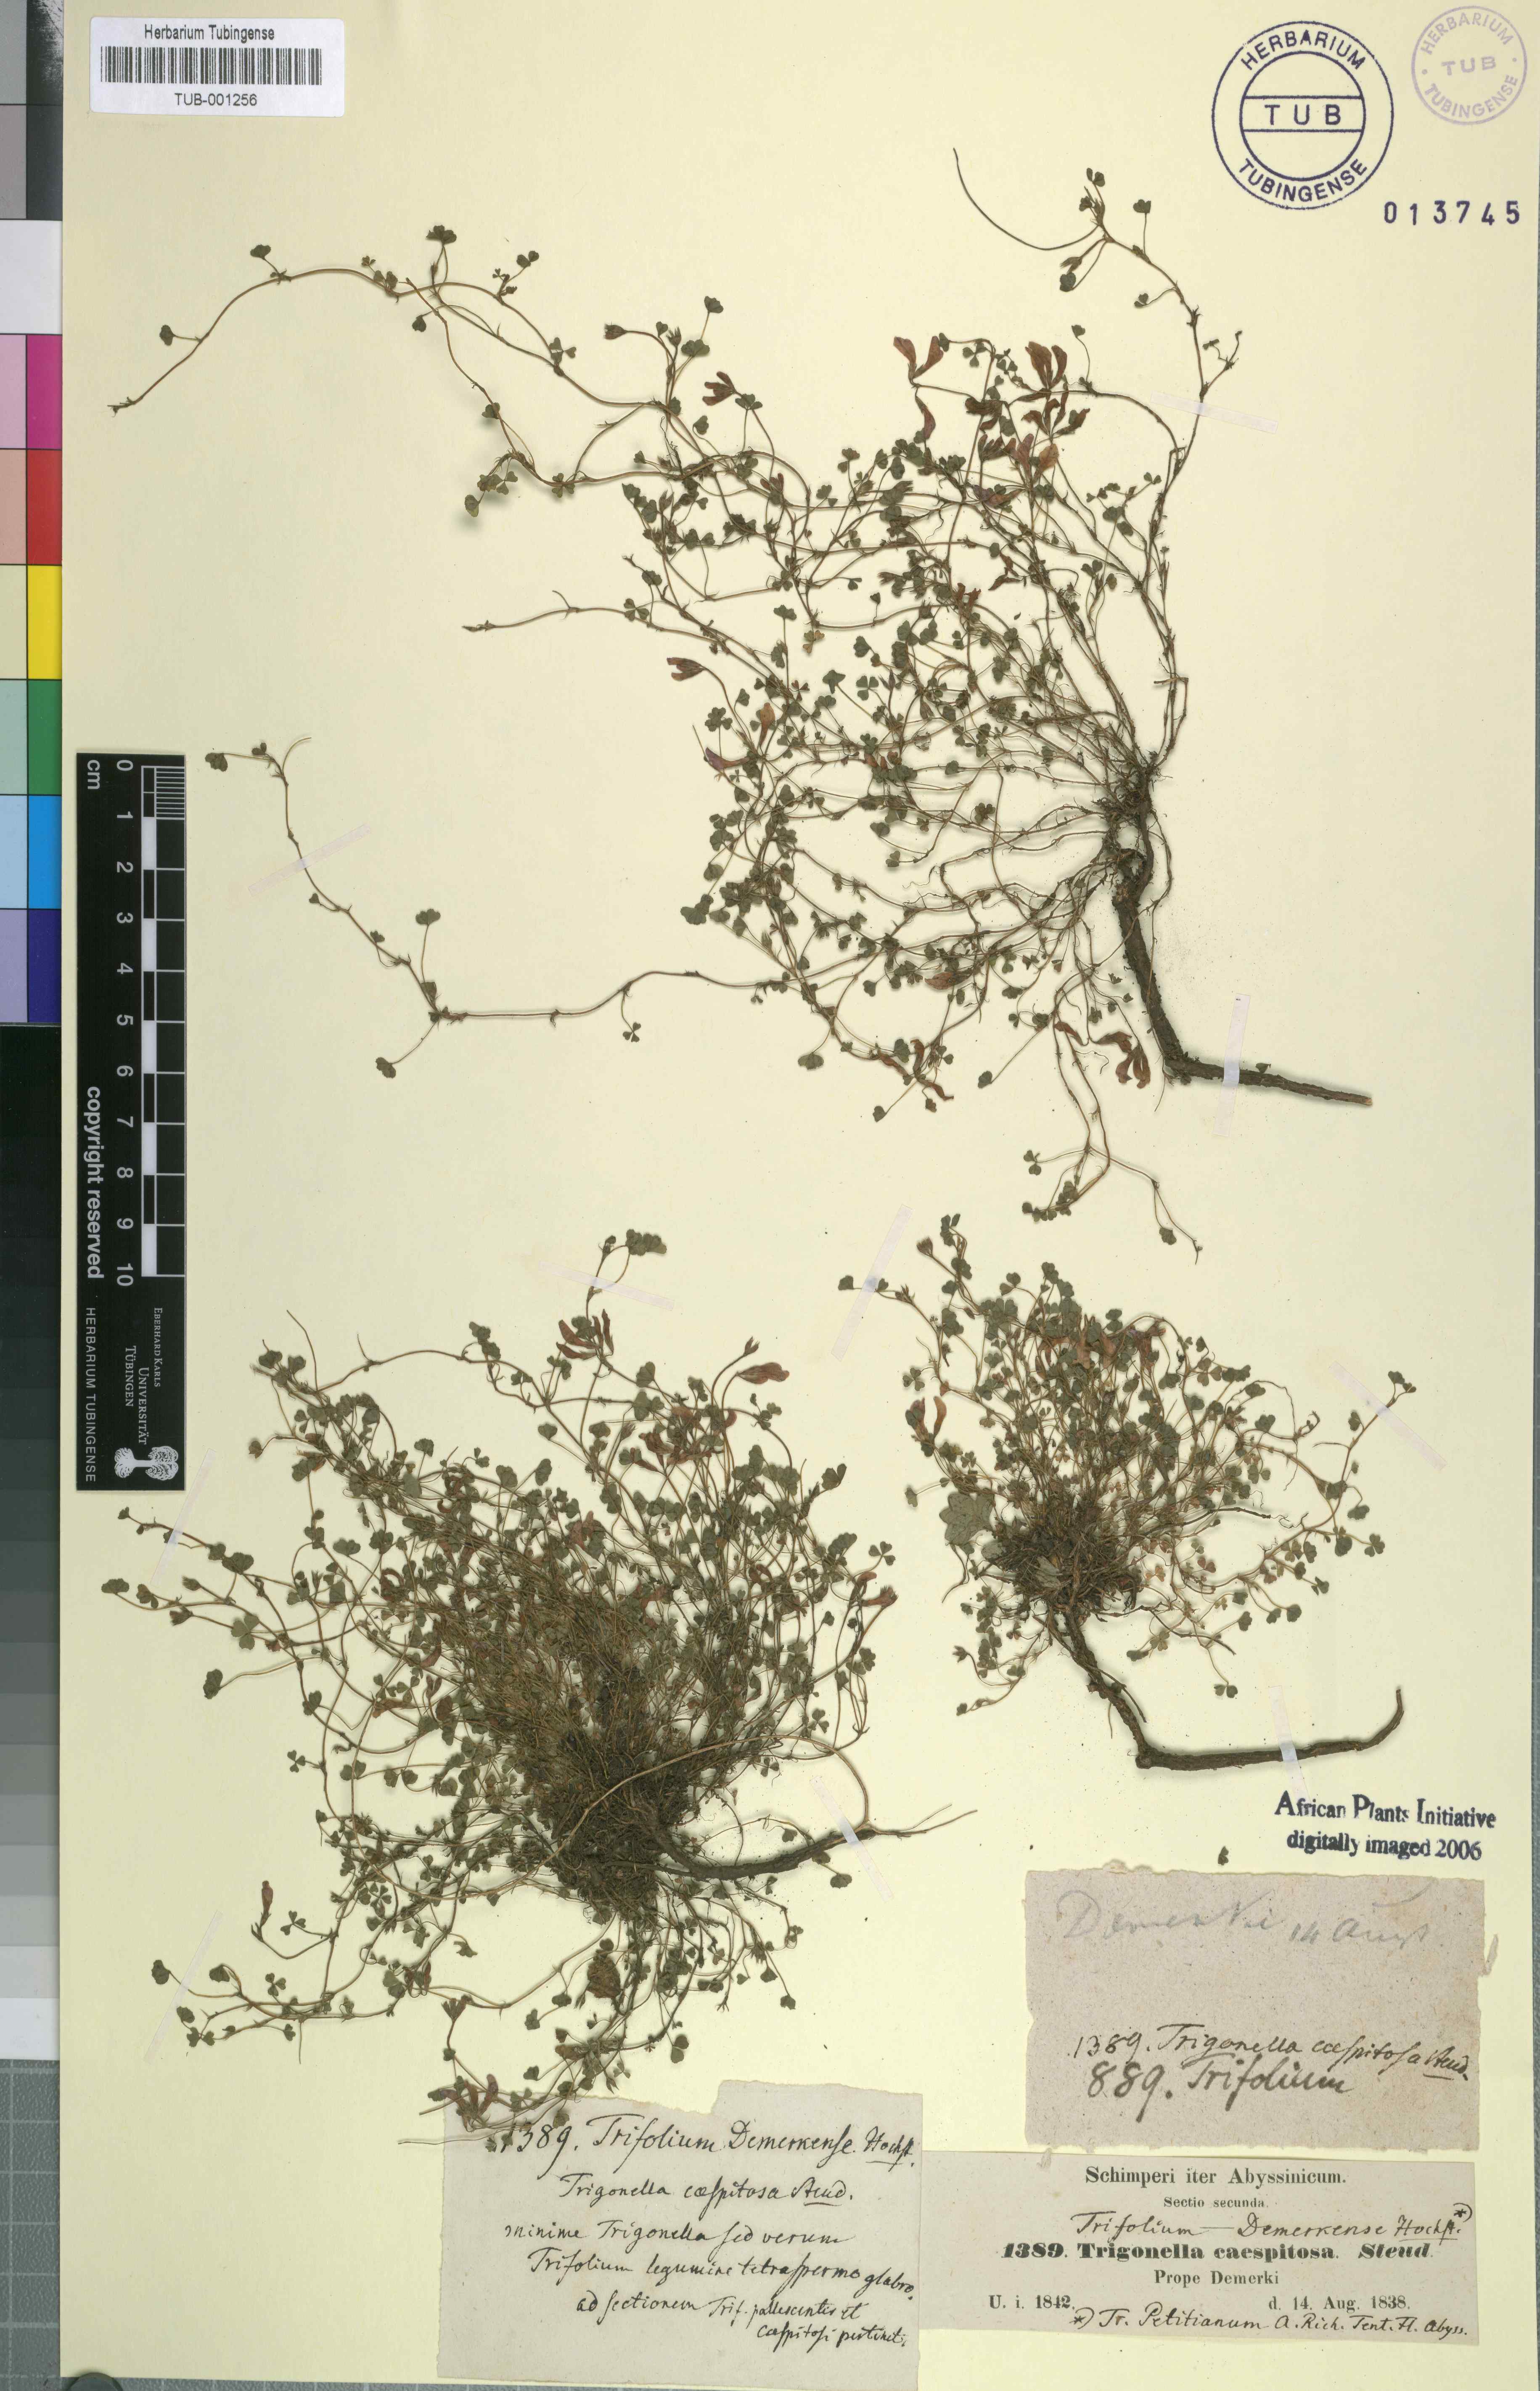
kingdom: Plantae
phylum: Tracheophyta
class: Magnoliopsida
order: Fabales
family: Fabaceae
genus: Trifolium
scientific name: Trifolium acaule
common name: Stemless clover
